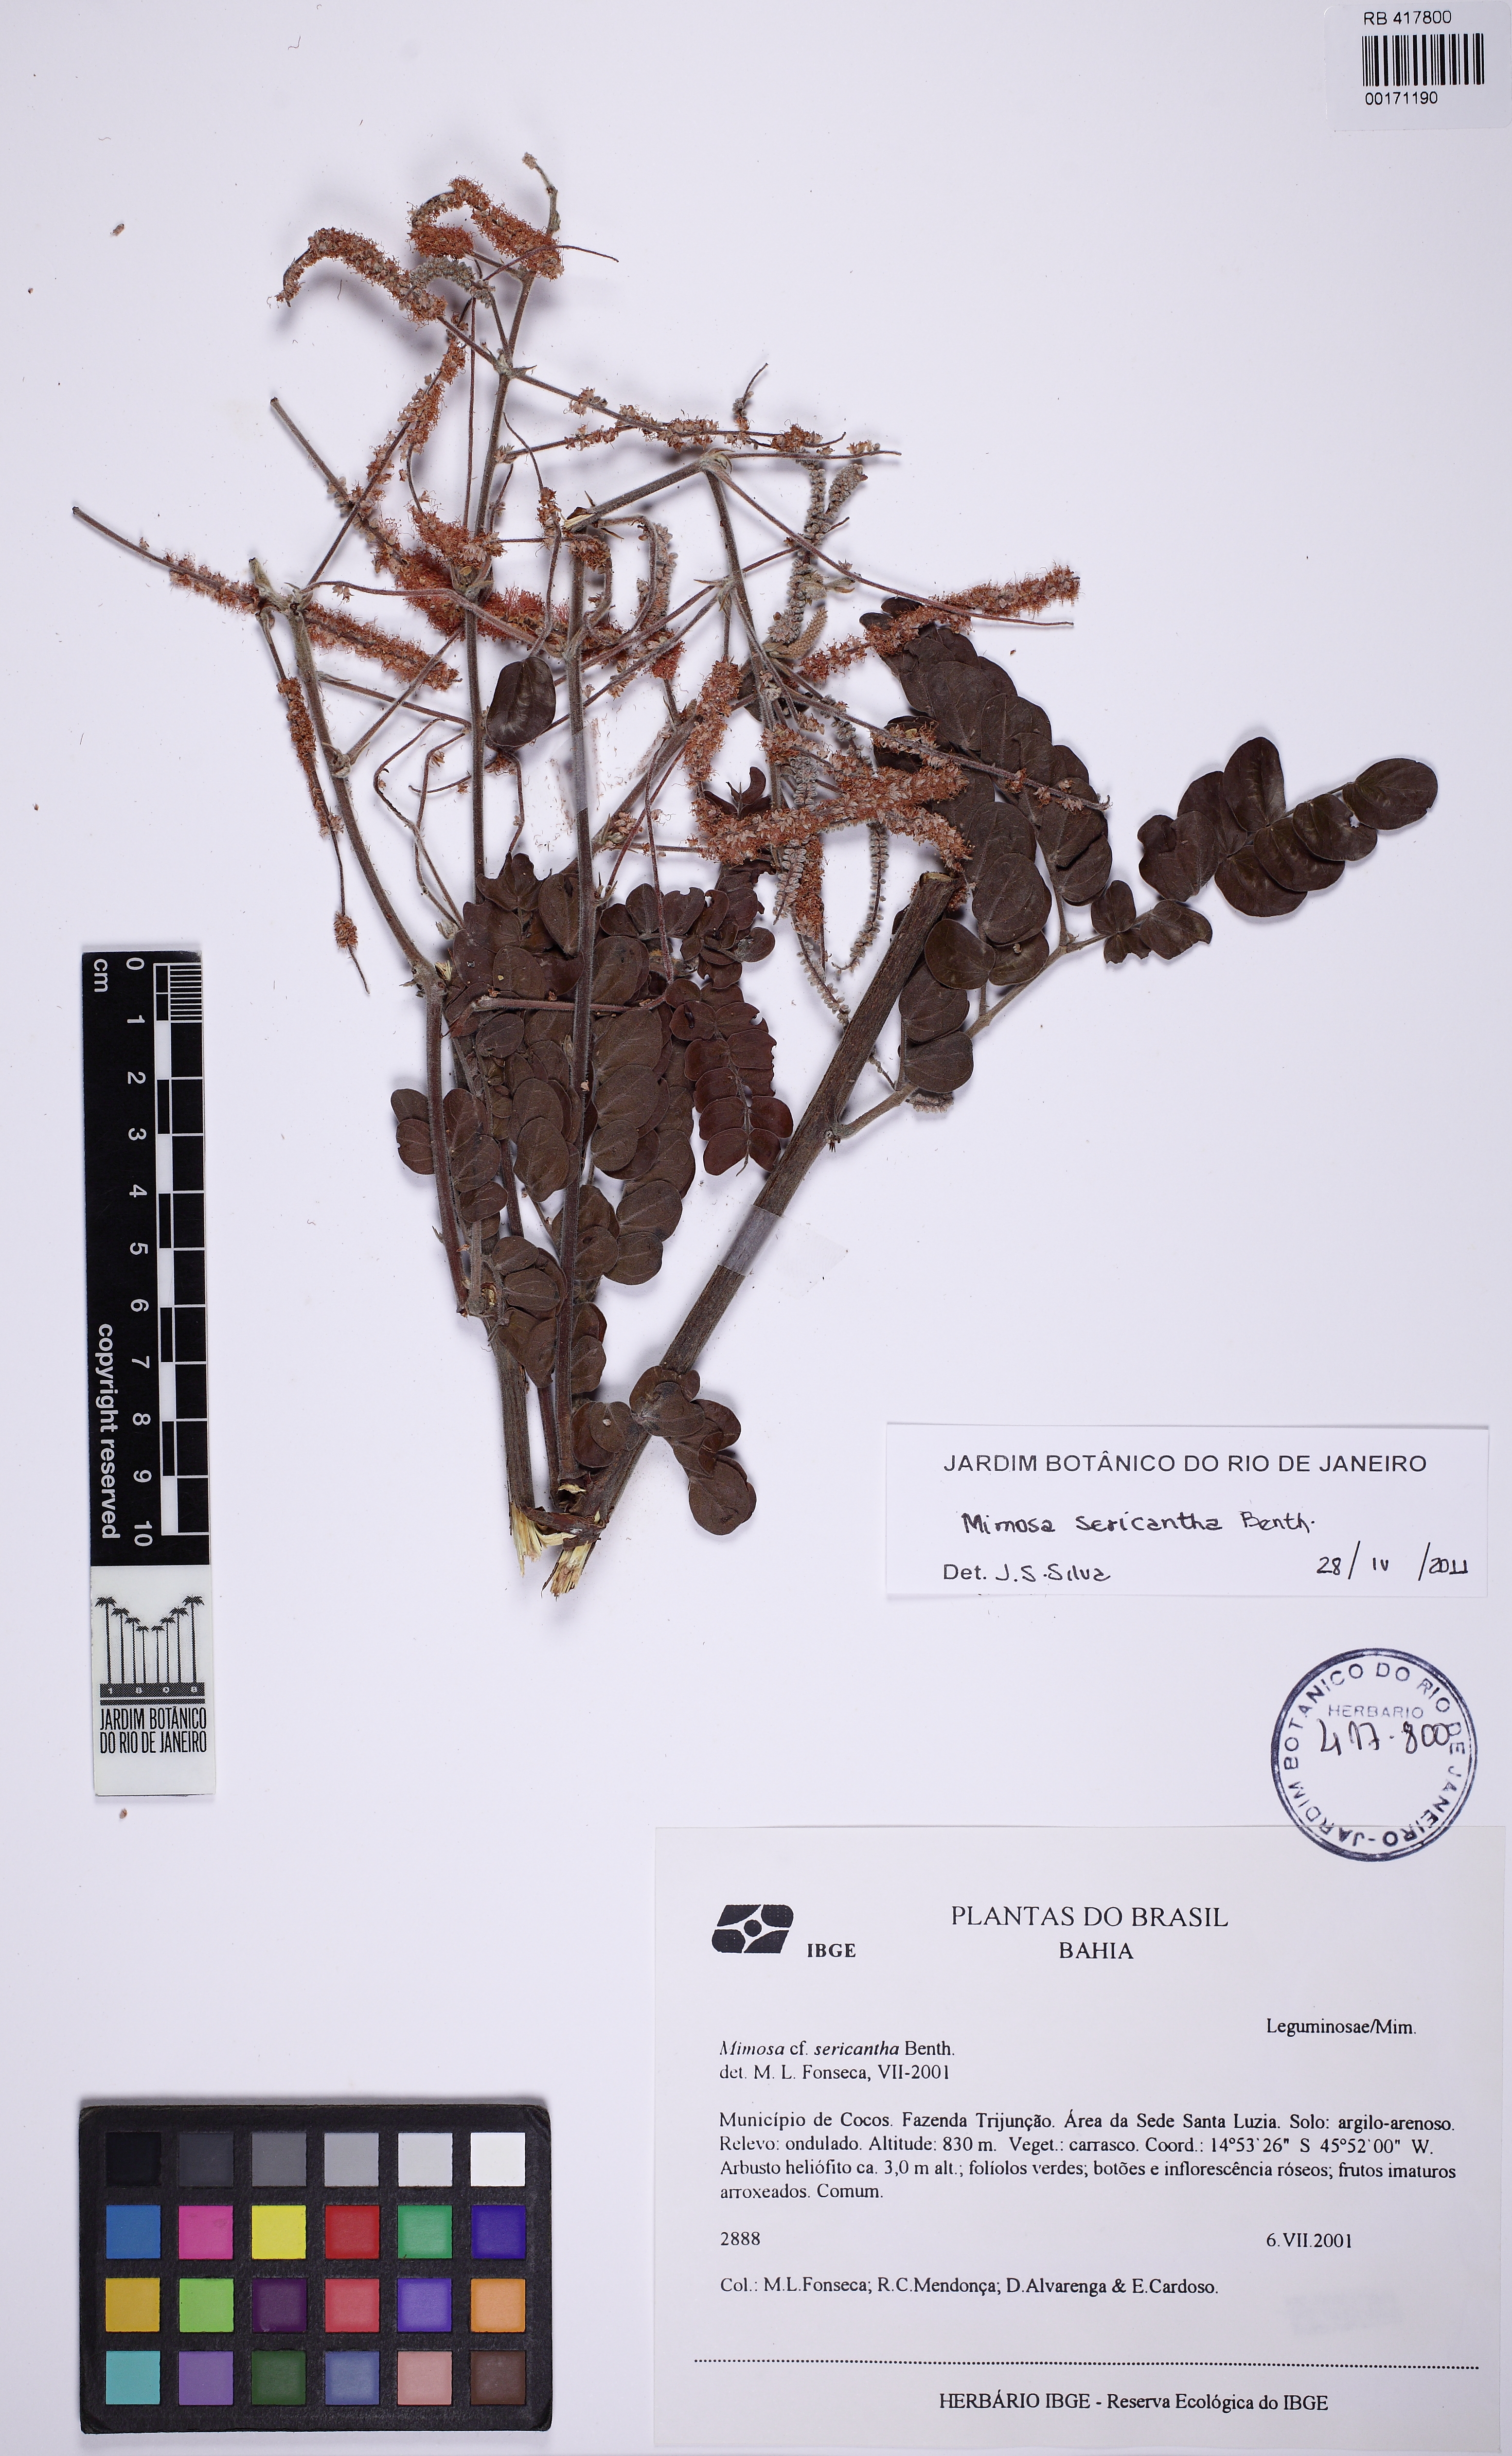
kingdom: Plantae
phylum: Tracheophyta
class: Magnoliopsida
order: Fabales
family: Fabaceae
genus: Mimosa
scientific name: Mimosa sericantha
